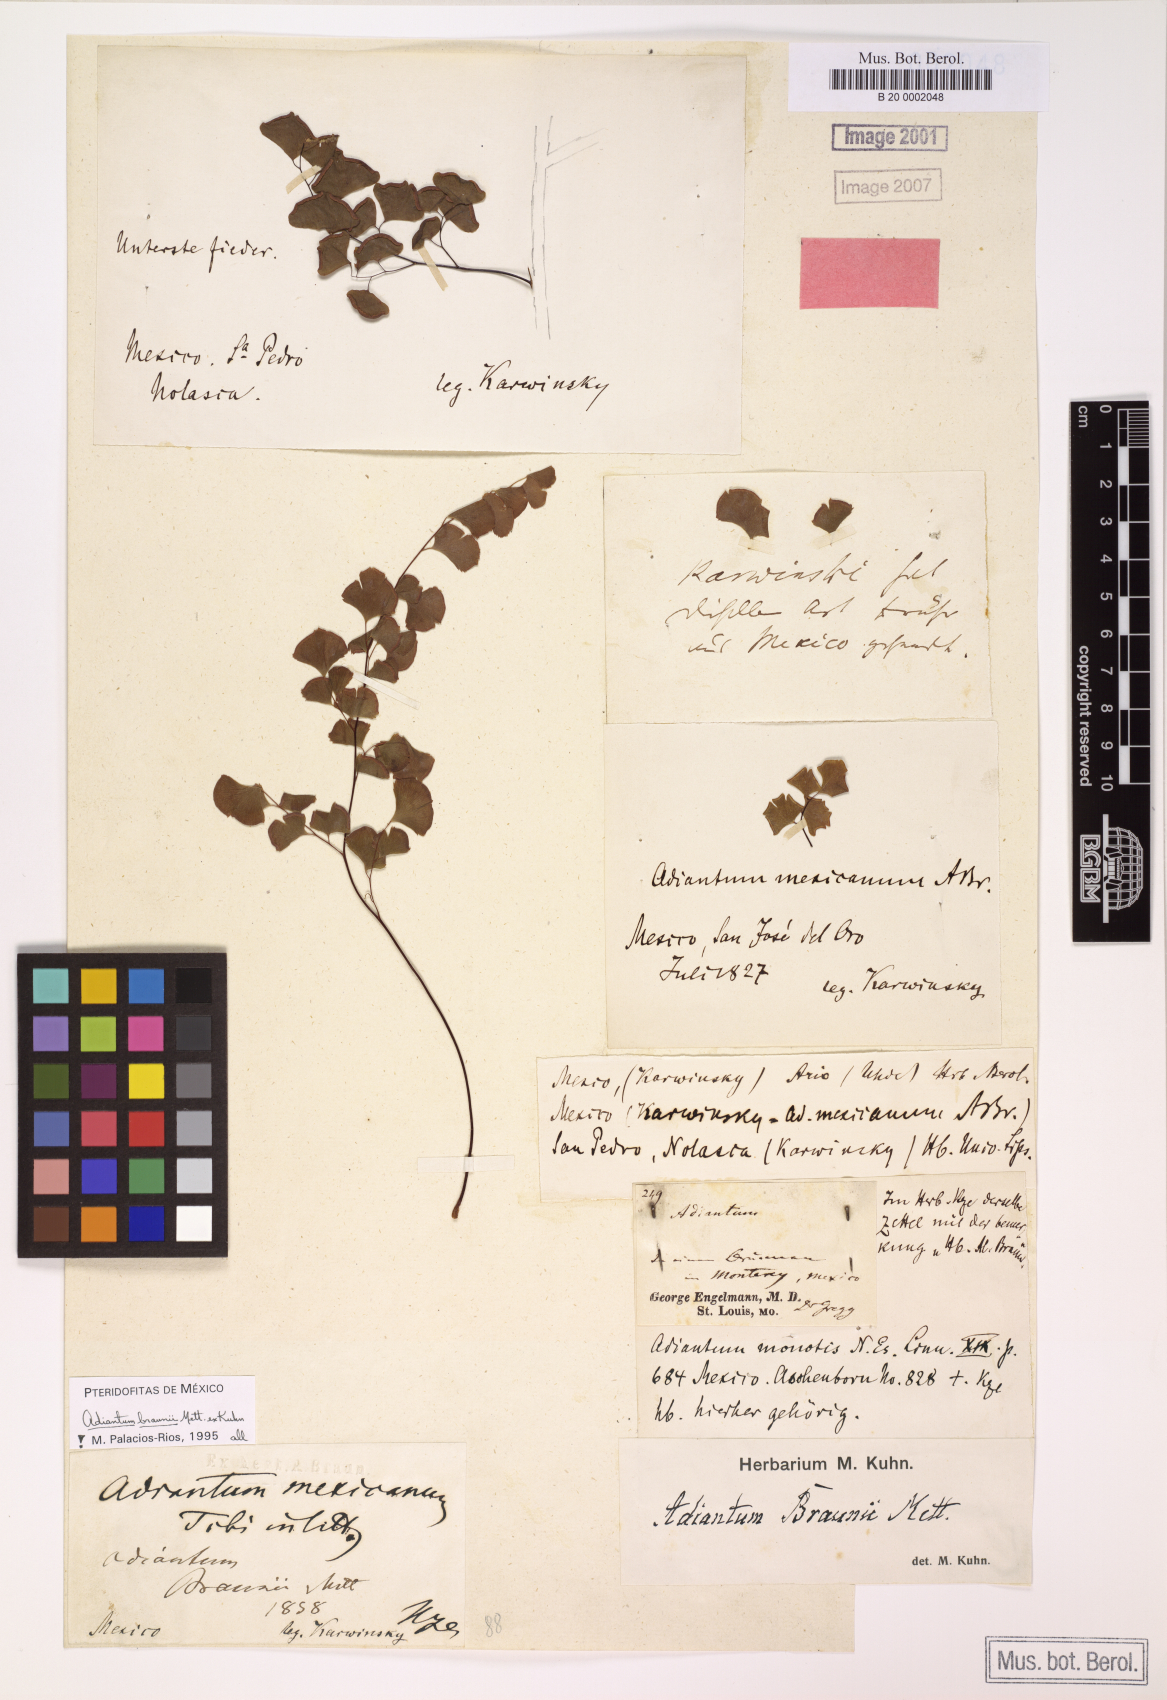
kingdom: Plantae
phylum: Tracheophyta
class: Polypodiopsida
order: Polypodiales
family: Pteridaceae
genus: Adiantum
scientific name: Adiantum braunii
